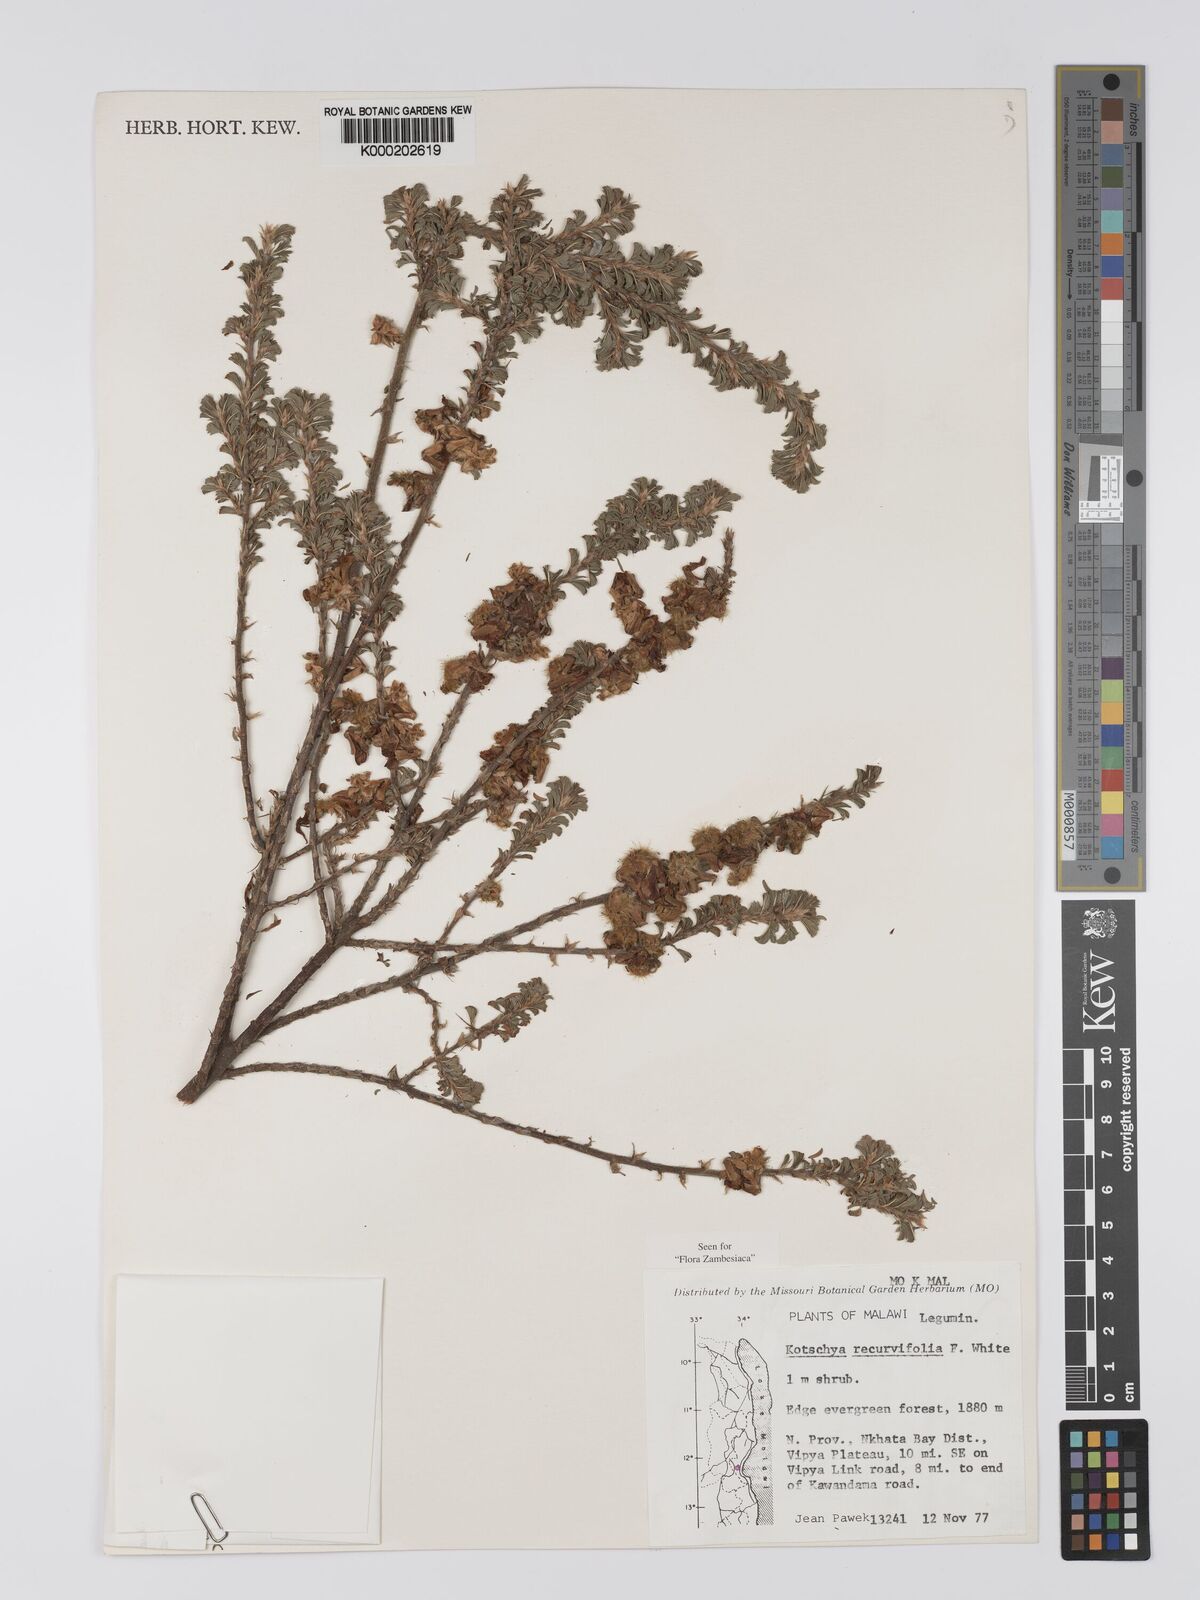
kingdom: Plantae
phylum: Tracheophyta
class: Magnoliopsida
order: Fabales
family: Fabaceae
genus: Kotschya
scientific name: Kotschya recurvifolia
